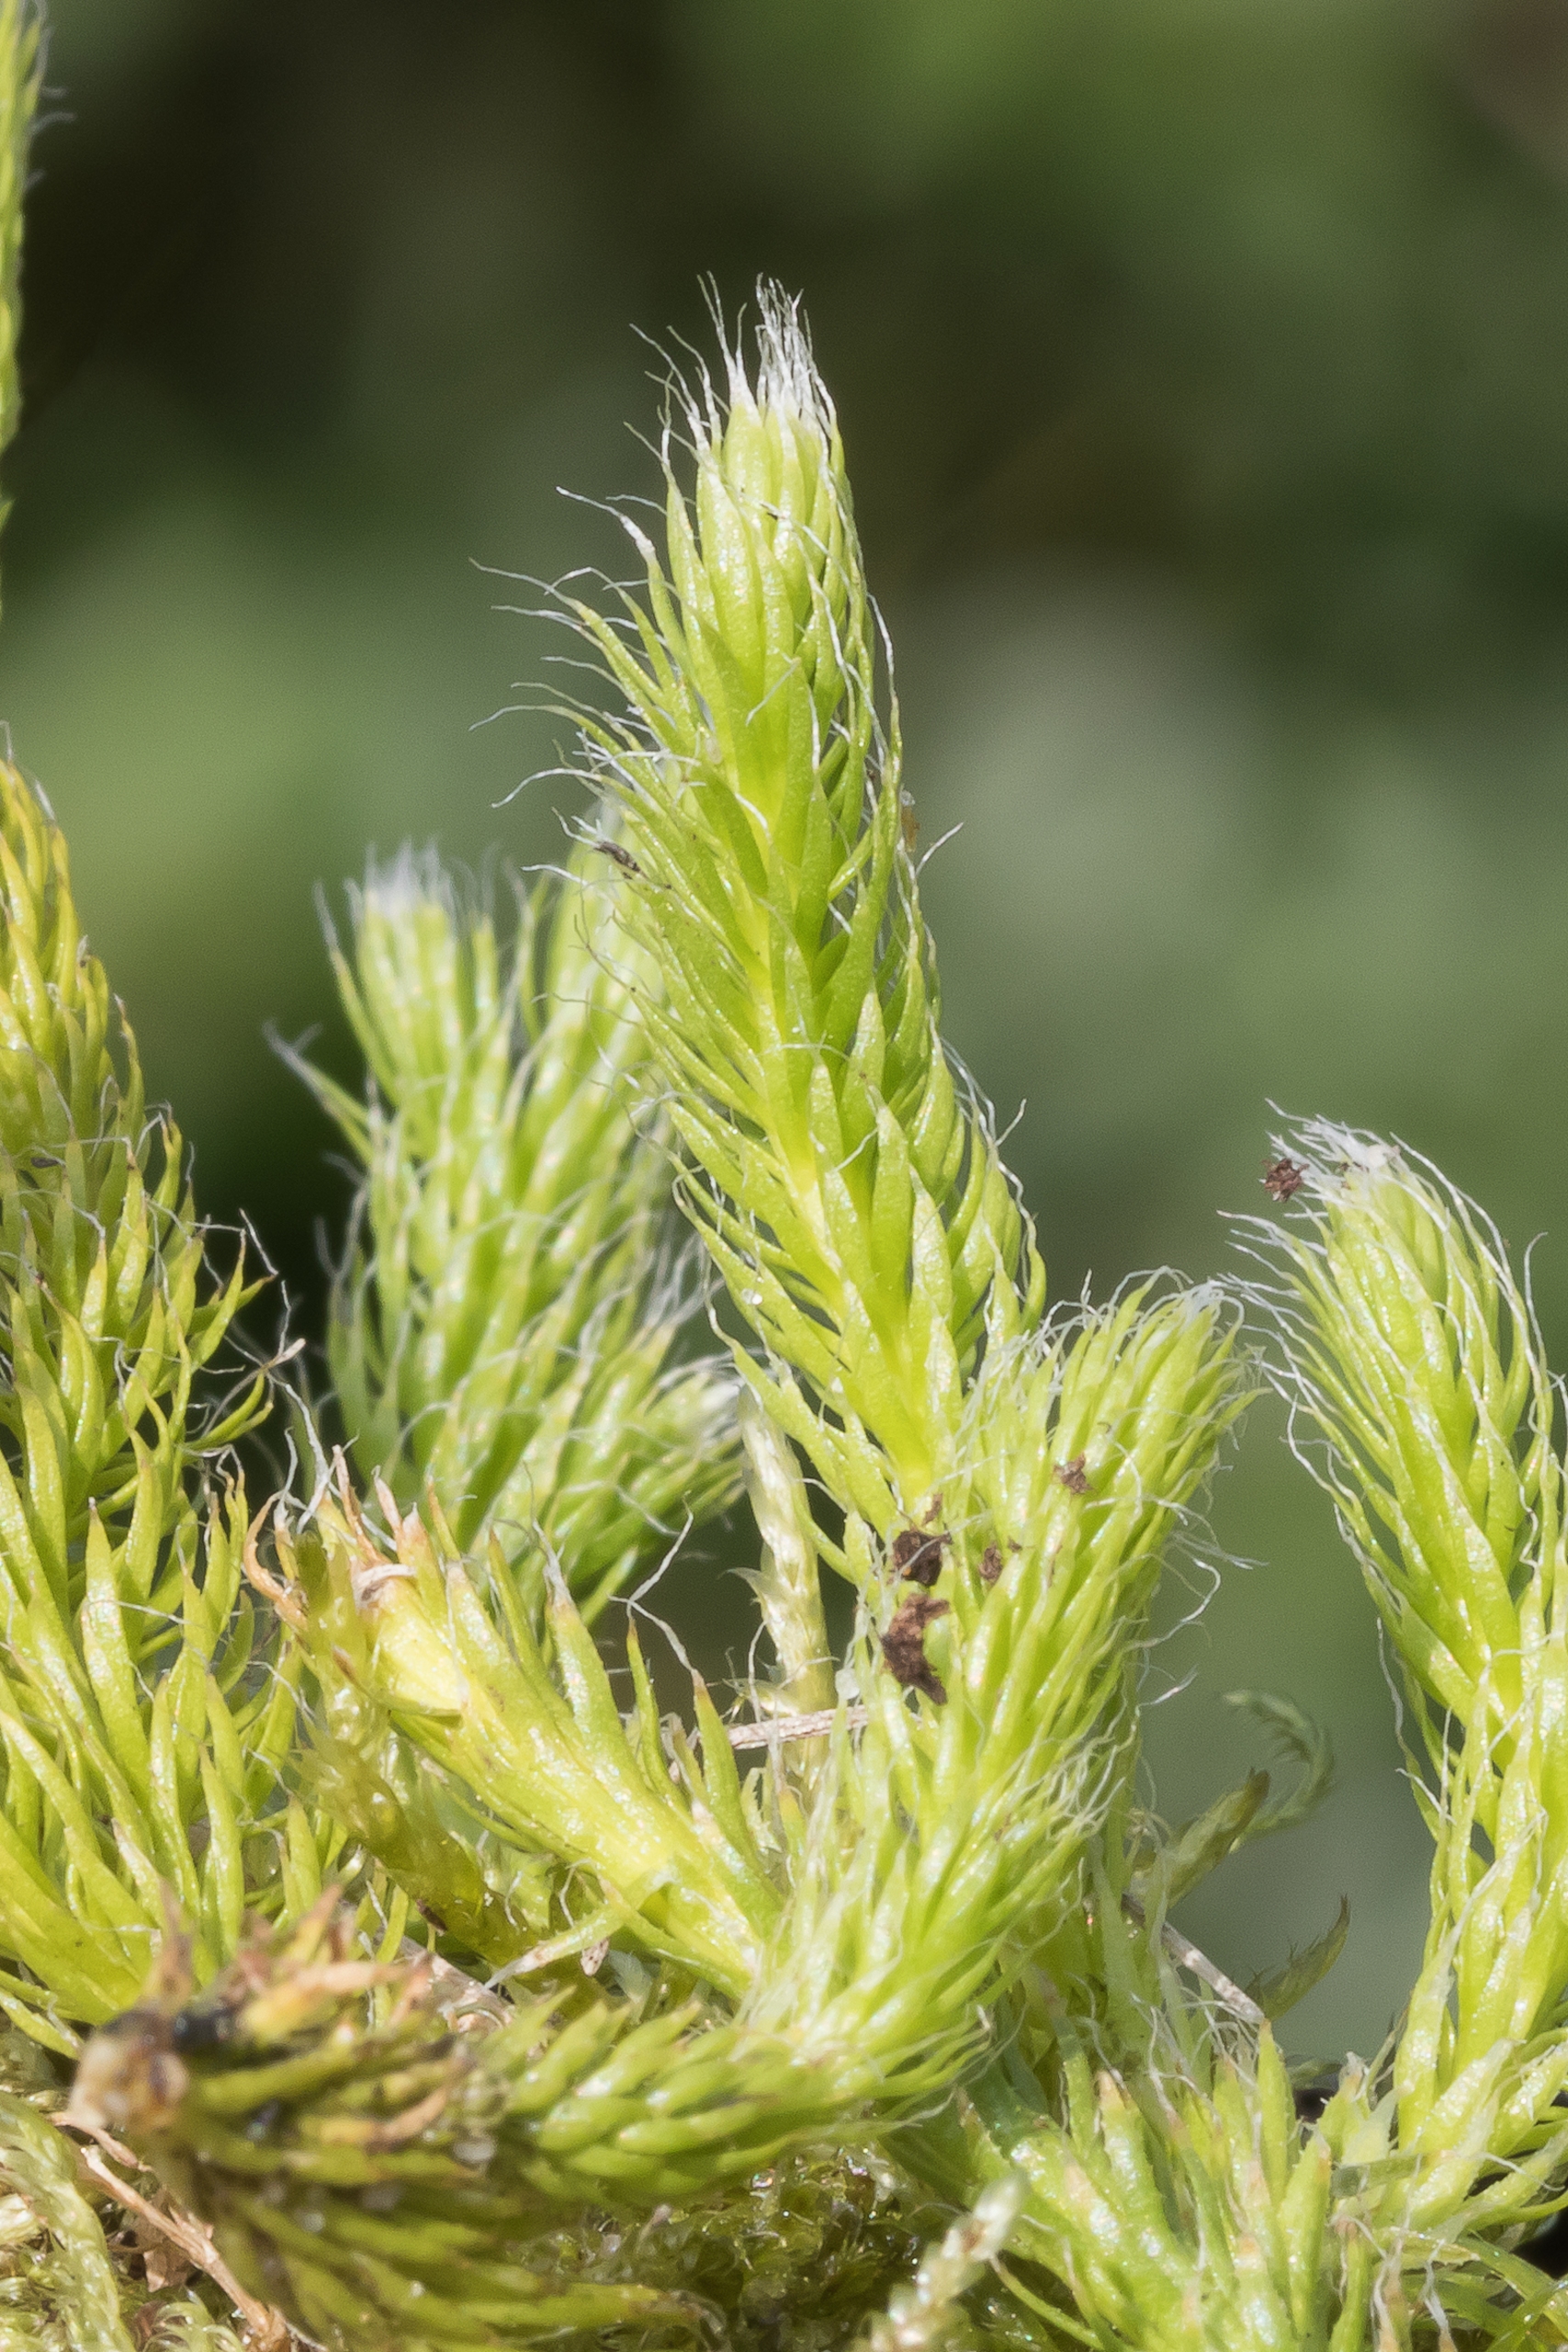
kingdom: Plantae
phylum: Tracheophyta
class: Lycopodiopsida
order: Lycopodiales
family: Lycopodiaceae
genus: Lycopodium
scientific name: Lycopodium clavatum
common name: Almindelig ulvefod
